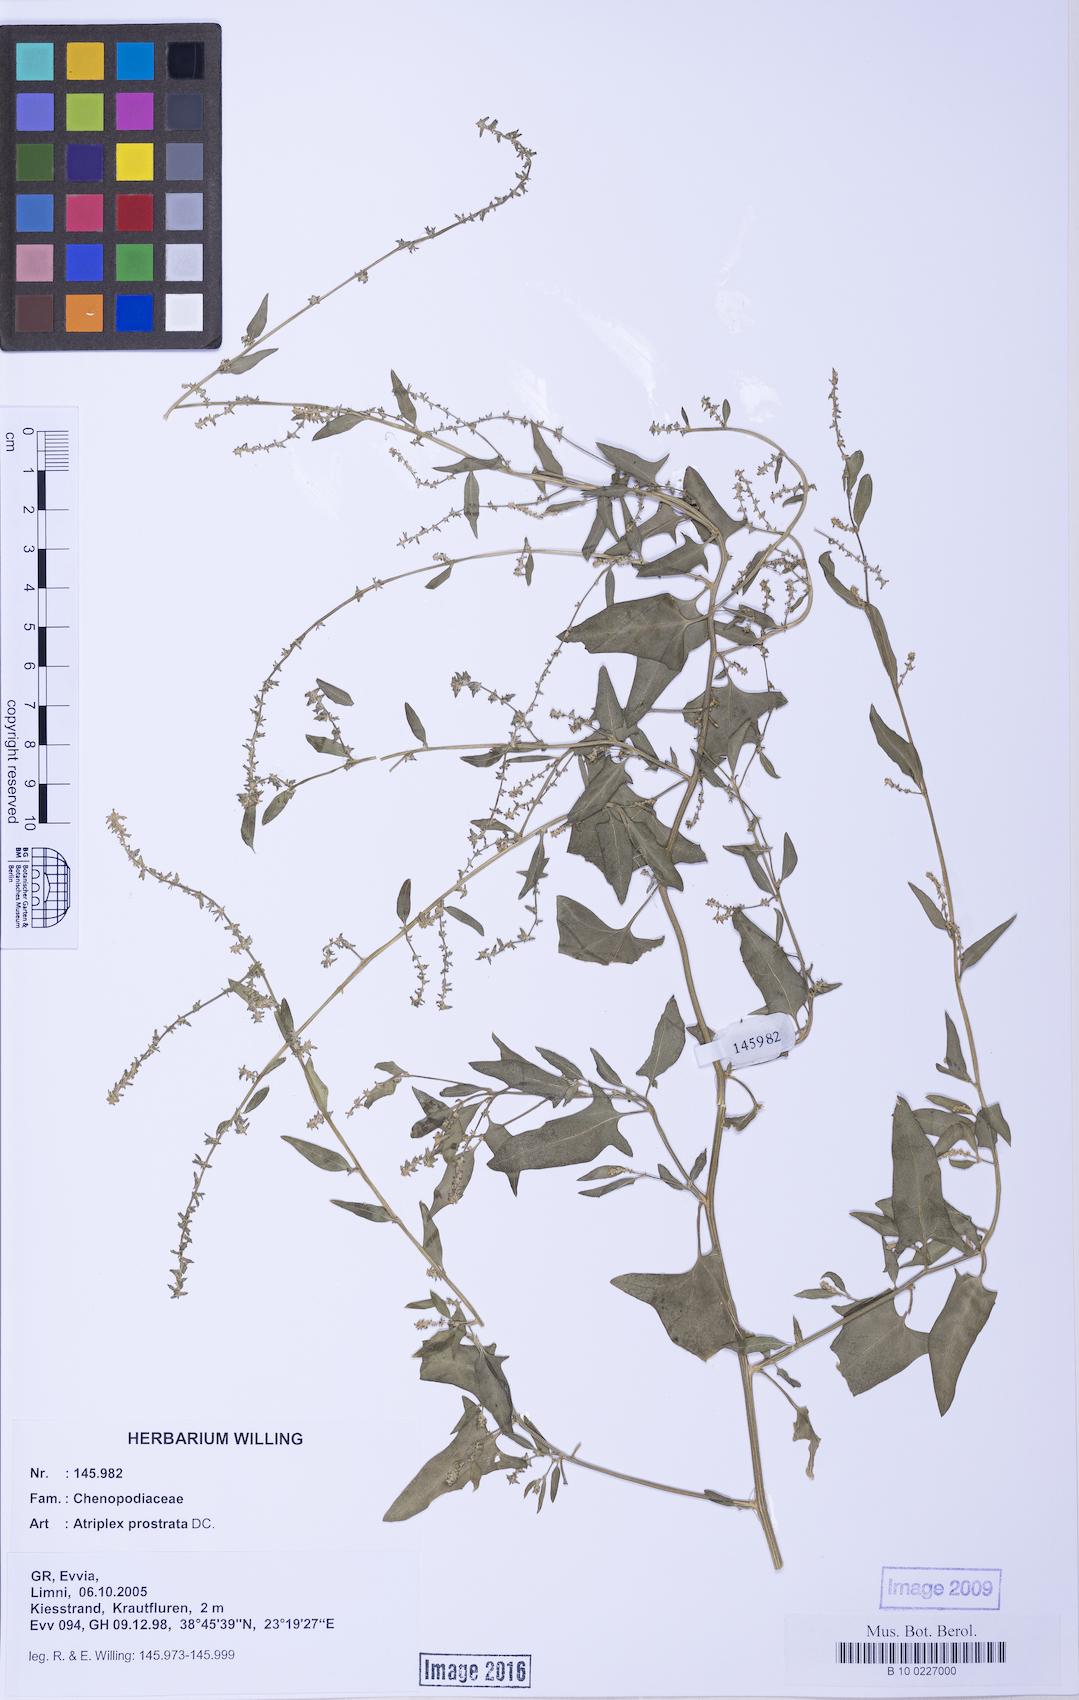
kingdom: Plantae
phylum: Tracheophyta
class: Magnoliopsida
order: Caryophyllales
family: Amaranthaceae
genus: Atriplex
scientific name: Atriplex prostrata
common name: Spear-leaved orache
